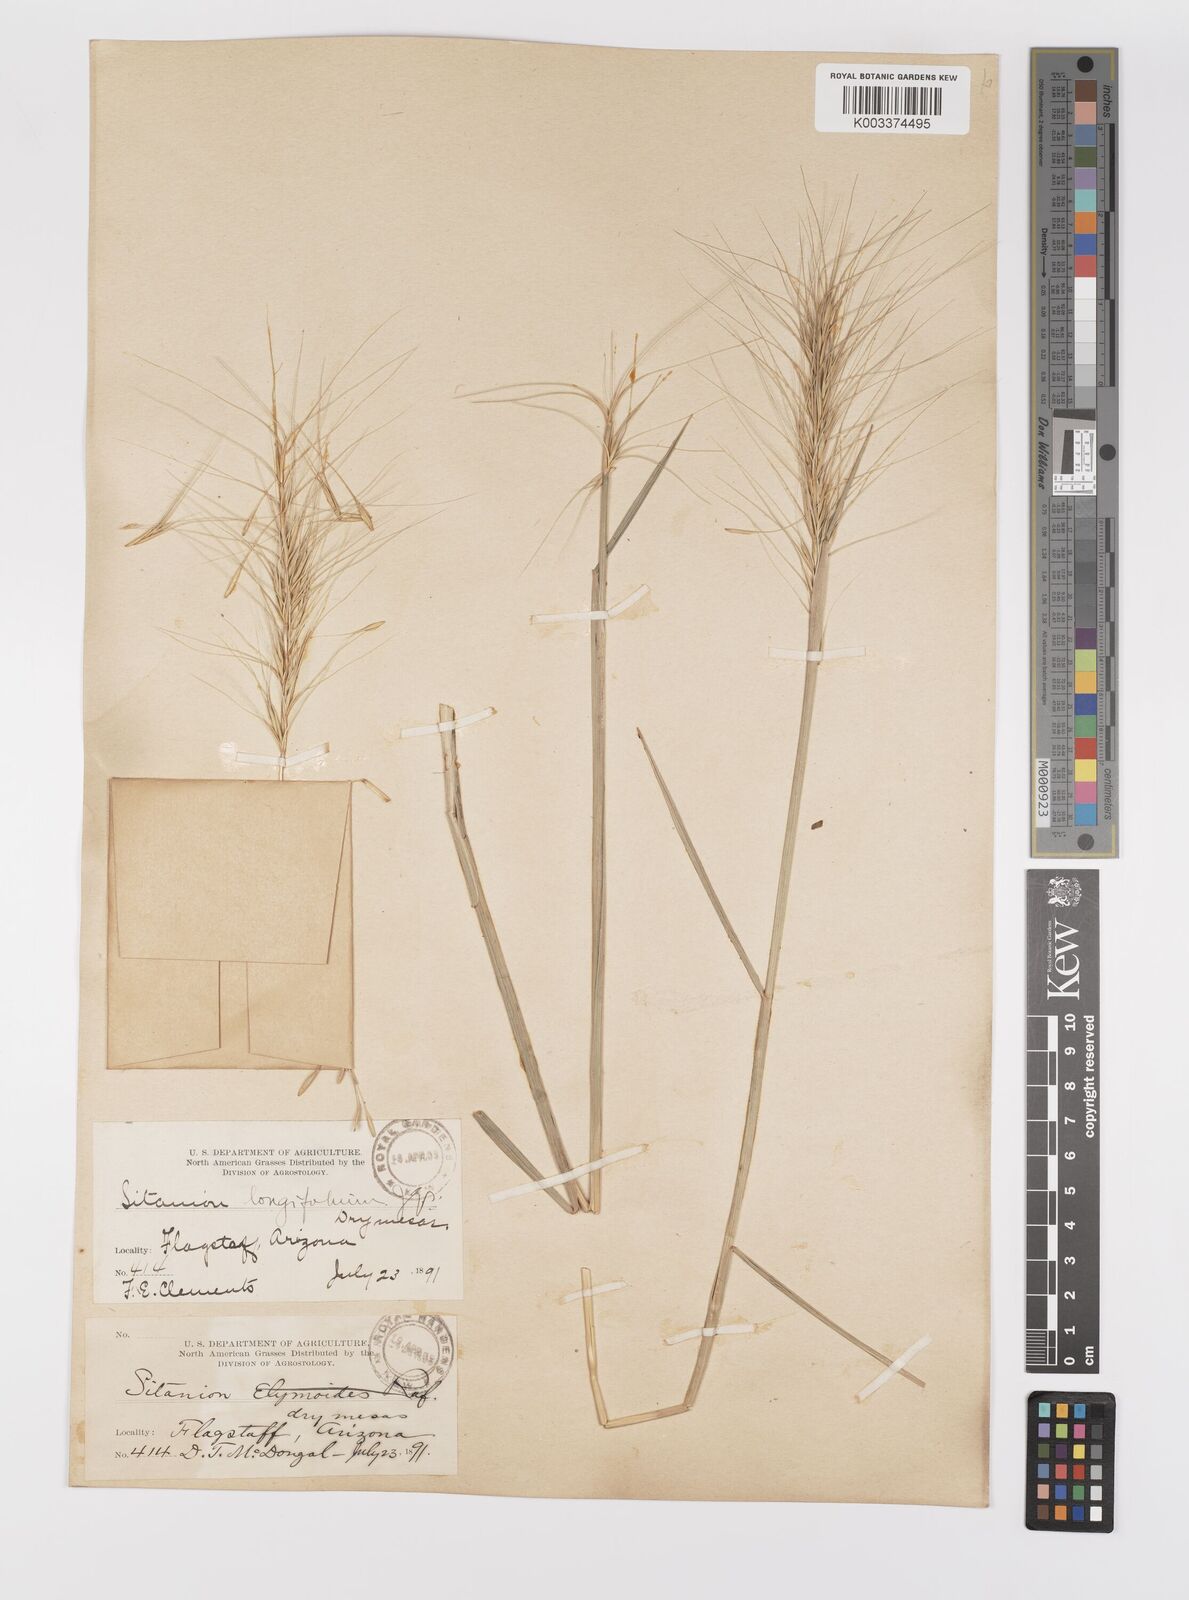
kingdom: Plantae
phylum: Tracheophyta
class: Liliopsida
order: Poales
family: Poaceae
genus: Elymus
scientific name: Elymus elymoides
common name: Bottlebrush squirreltail
